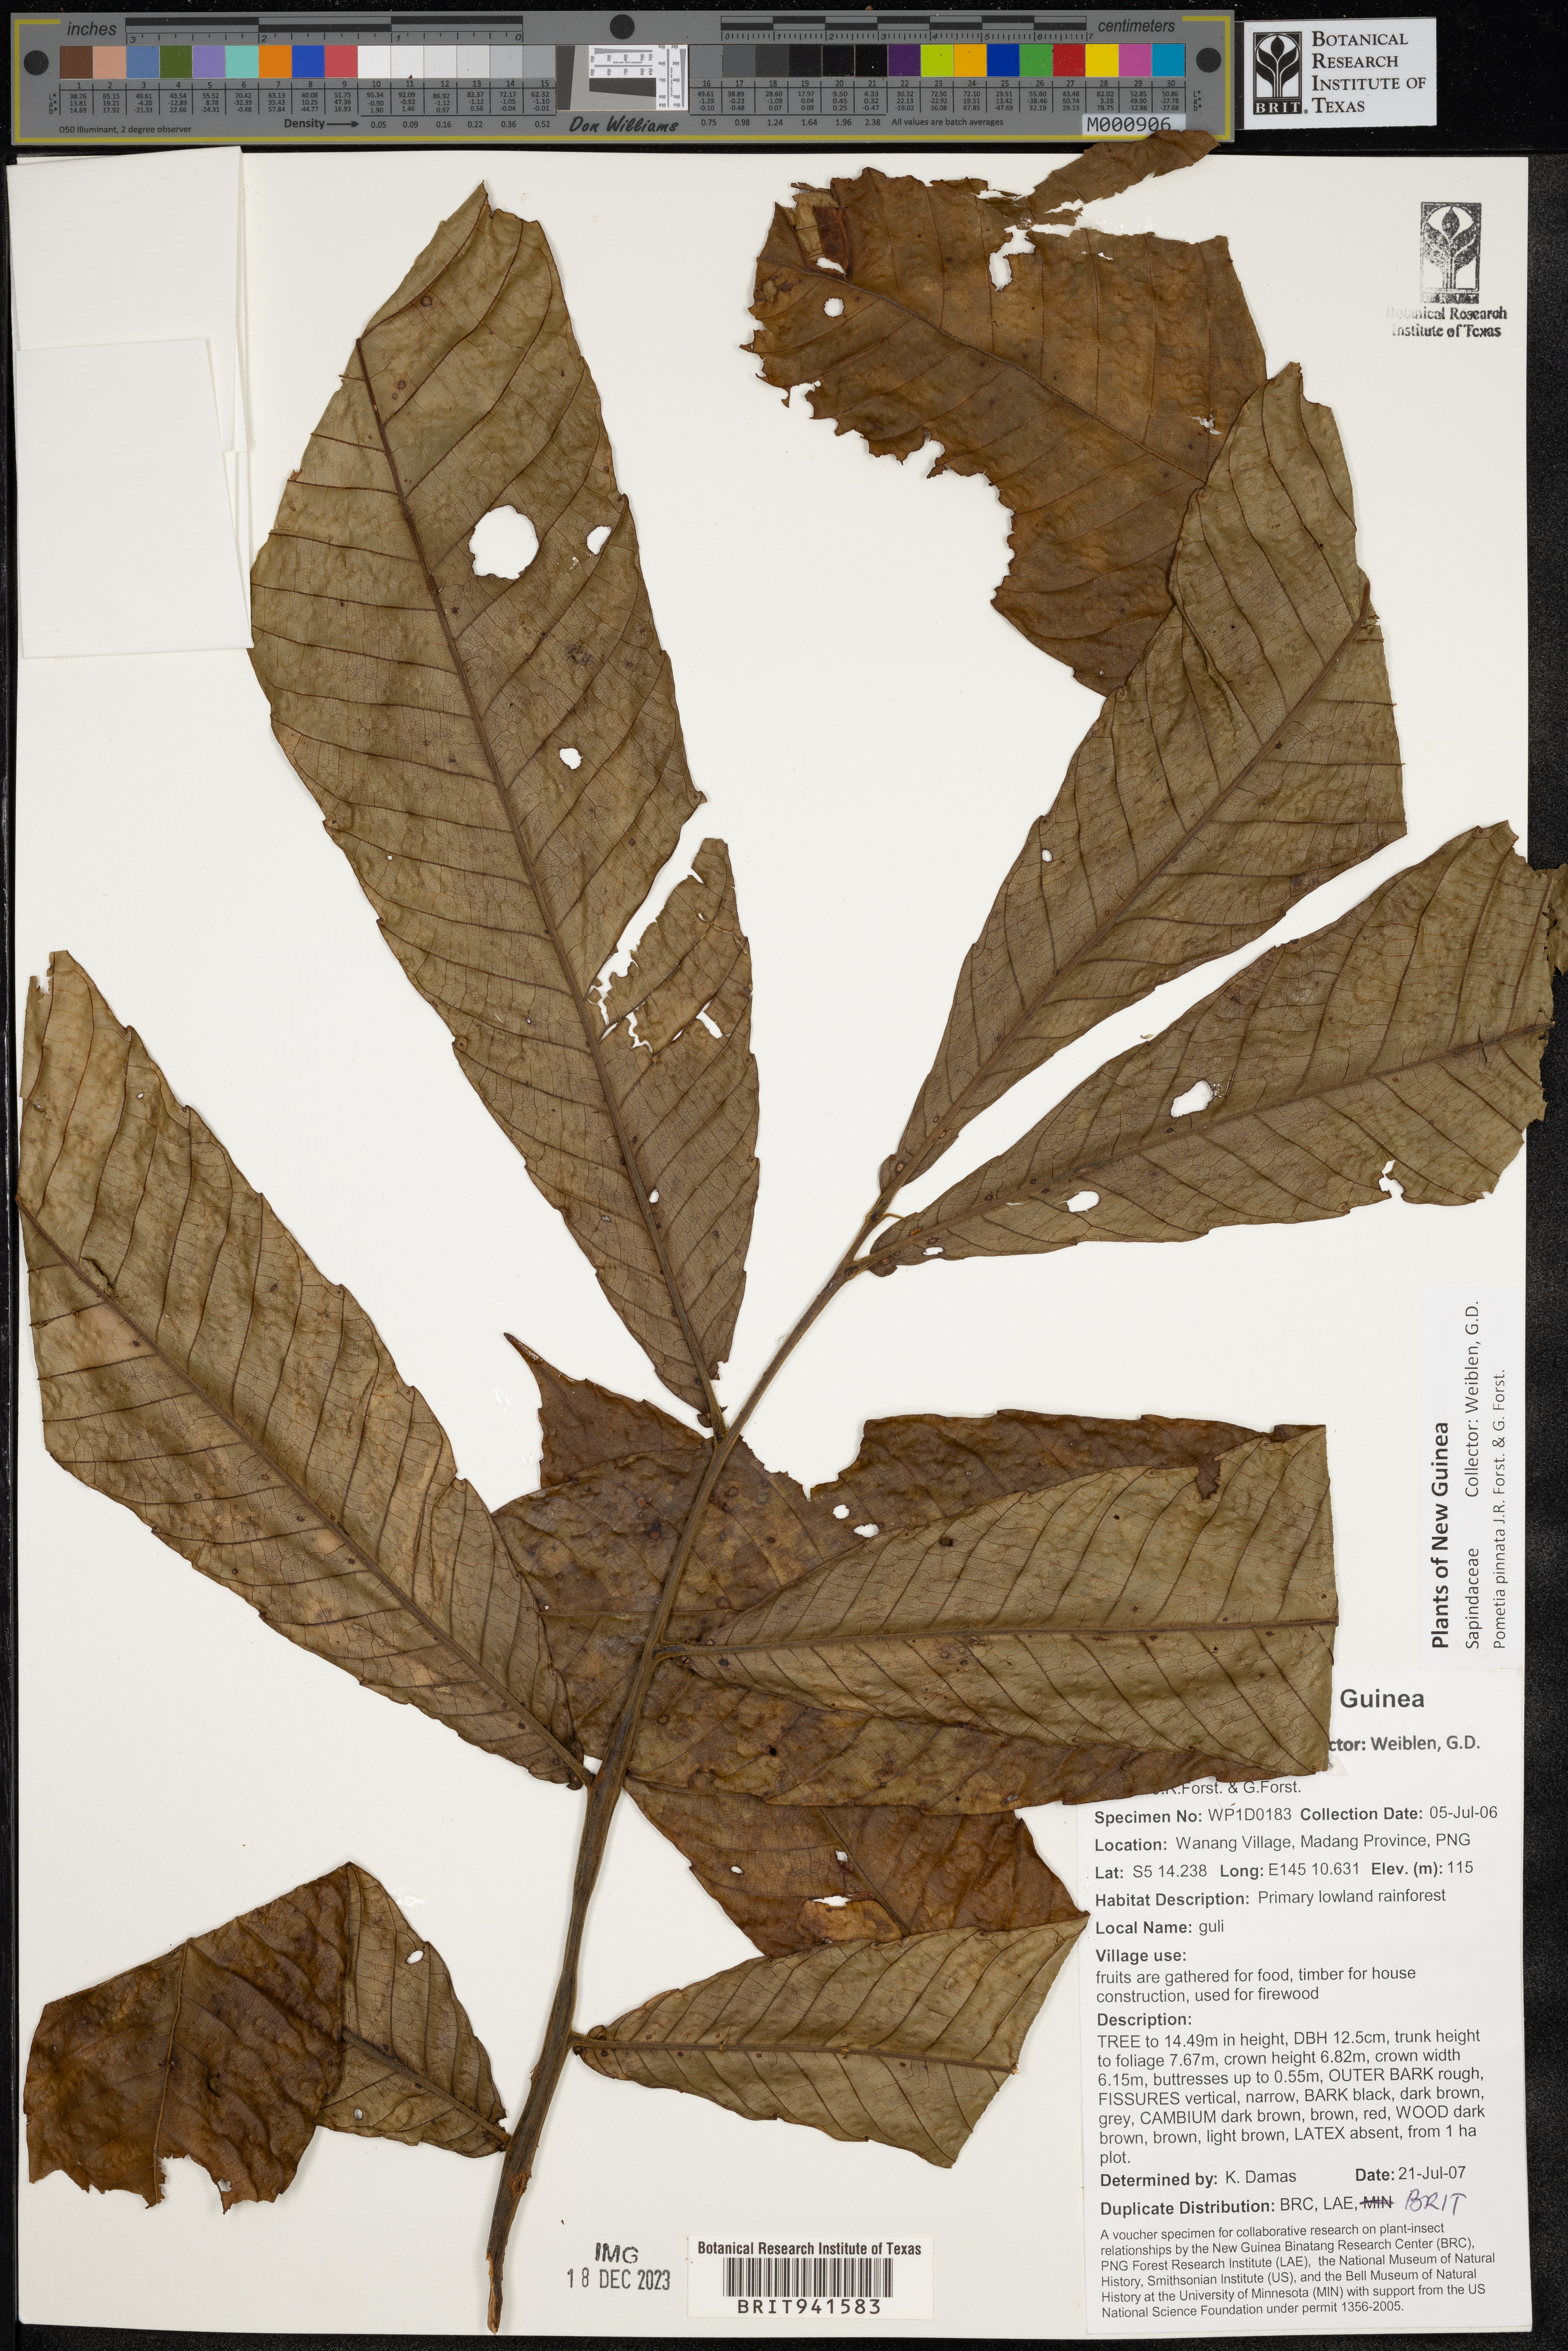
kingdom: Plantae
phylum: Tracheophyta
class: Magnoliopsida
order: Sapindales
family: Sapindaceae
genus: Mischocarpus
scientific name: Mischocarpus
